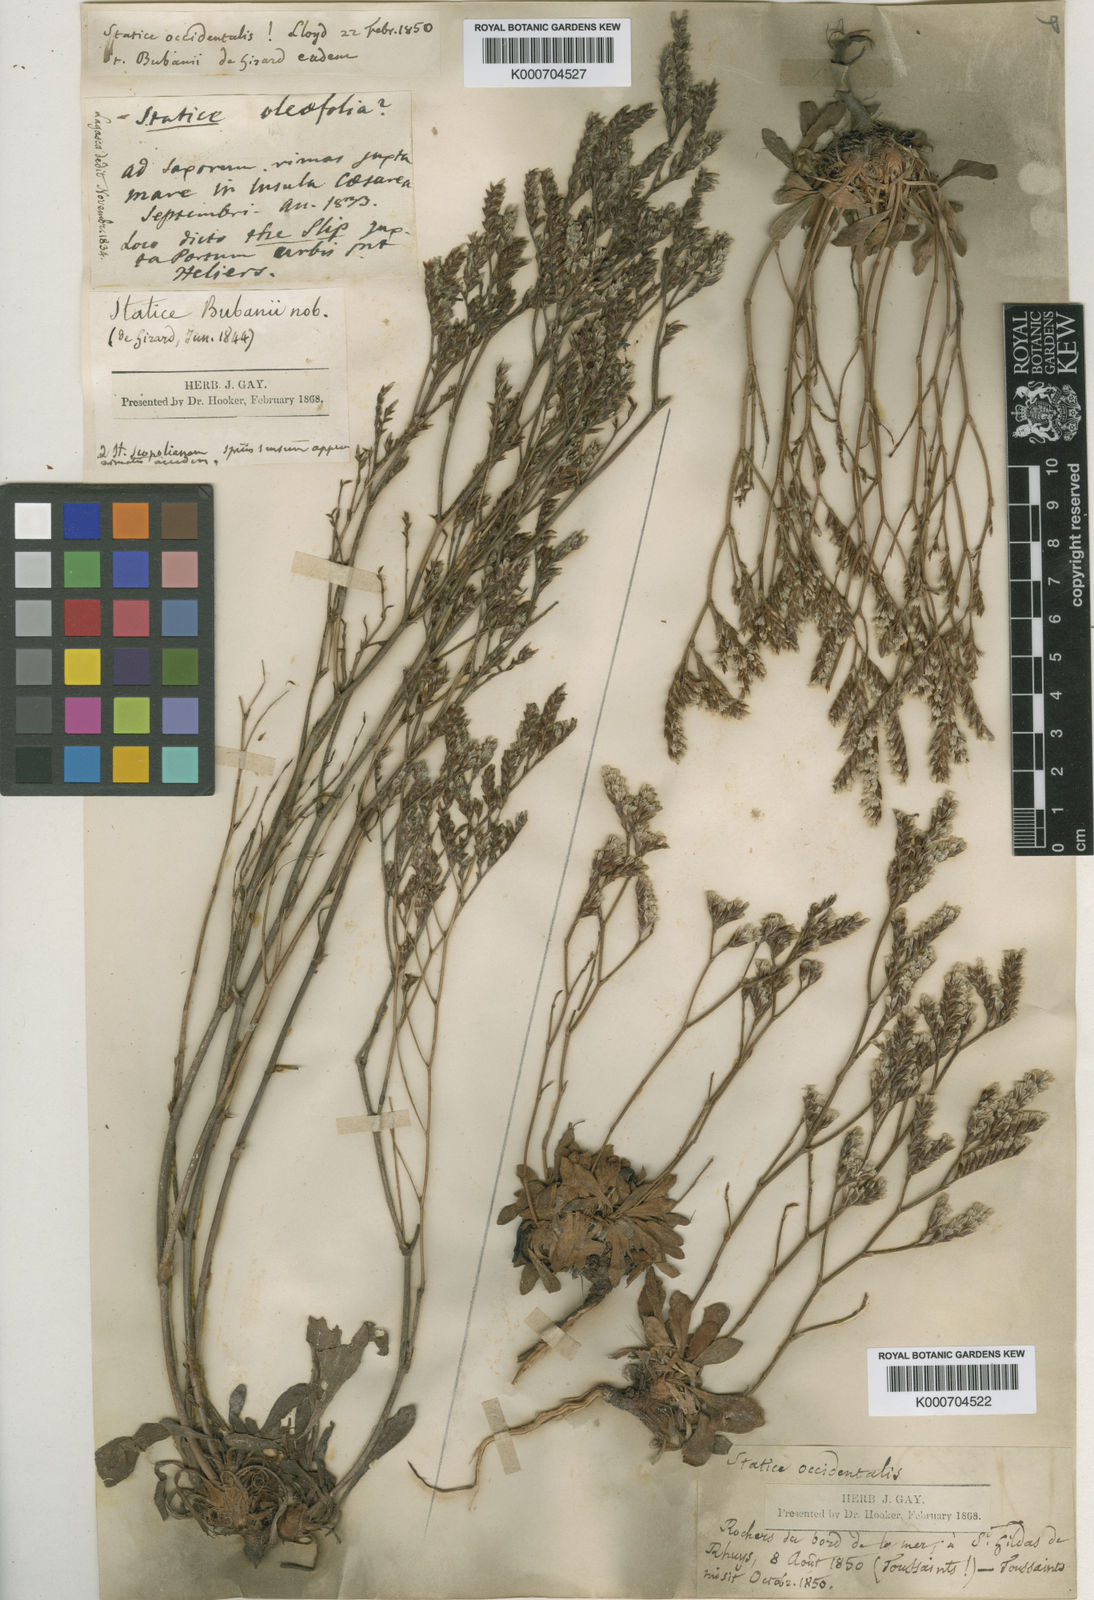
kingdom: Plantae
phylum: Tracheophyta
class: Magnoliopsida
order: Caryophyllales
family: Plumbaginaceae
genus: Limonium
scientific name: Limonium virgatum
